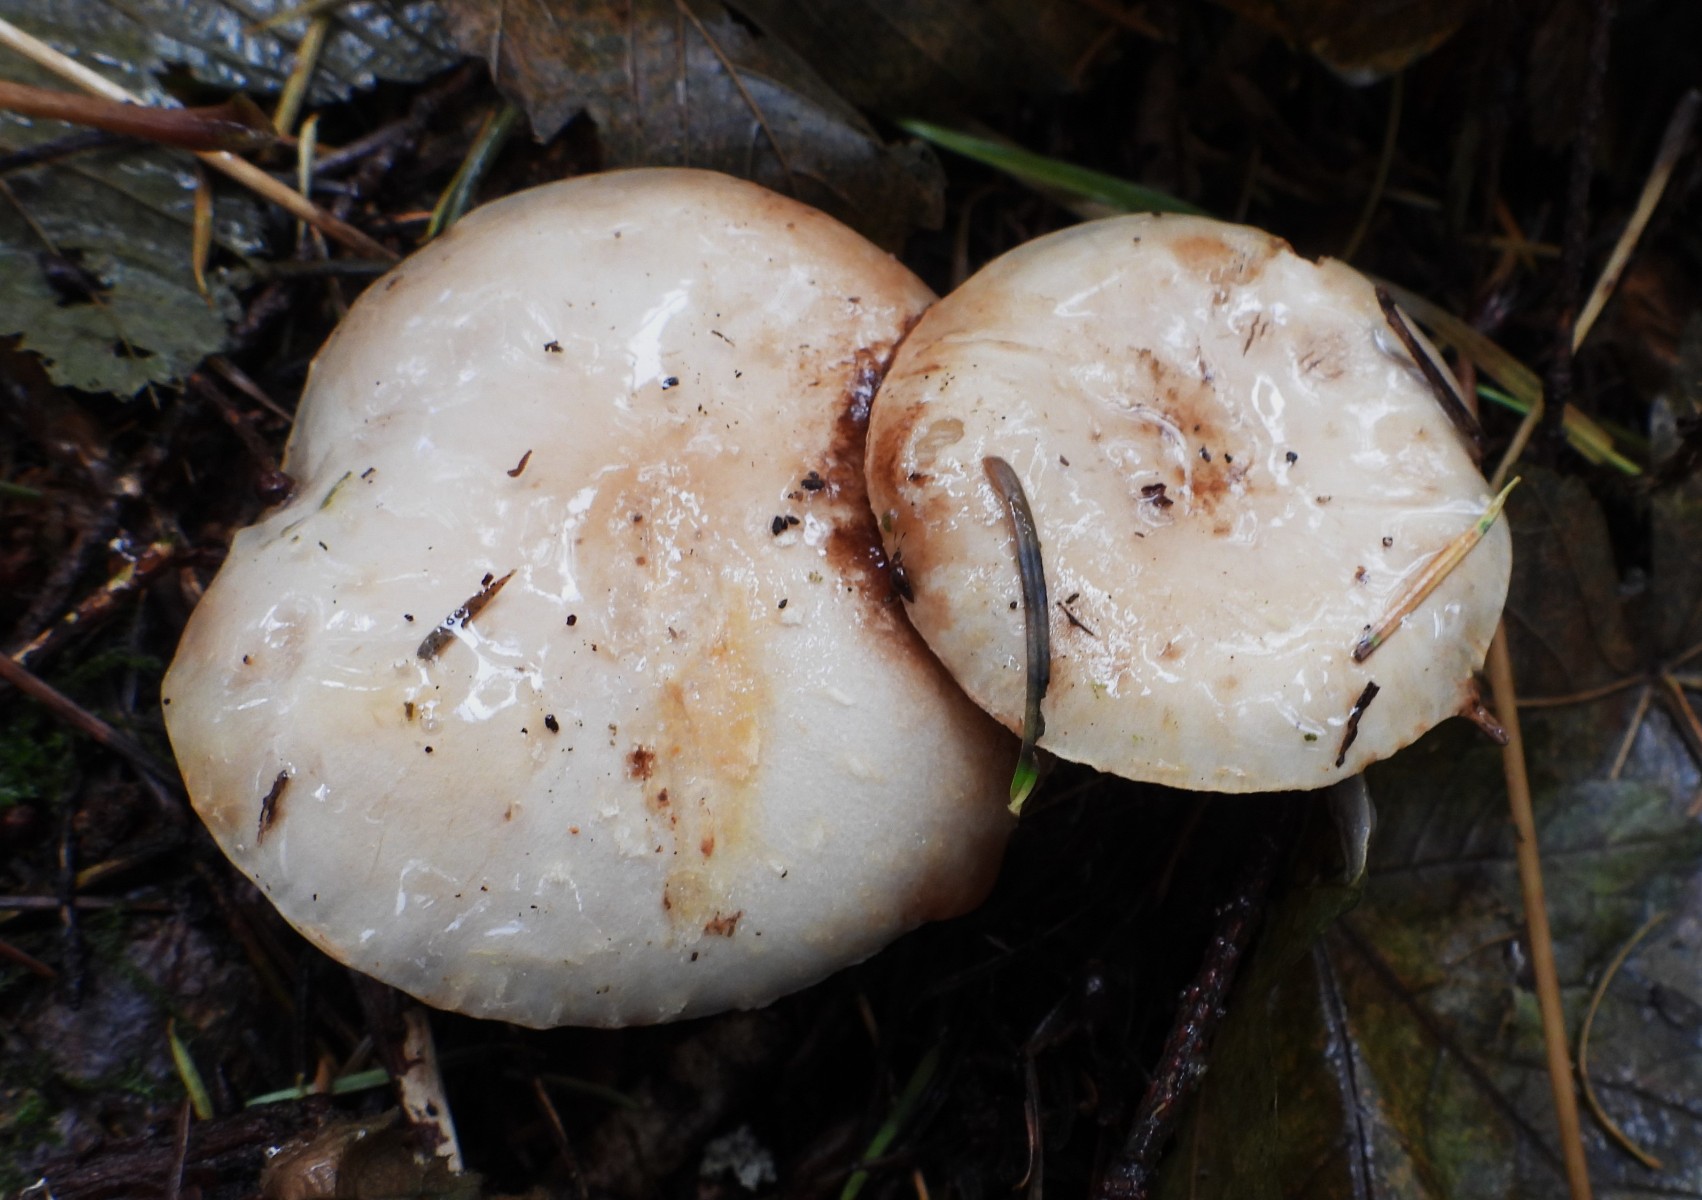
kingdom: Fungi
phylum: Basidiomycota
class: Agaricomycetes
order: Agaricales
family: Strophariaceae
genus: Pholiota
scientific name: Pholiota lenta
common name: løv-skælhat
